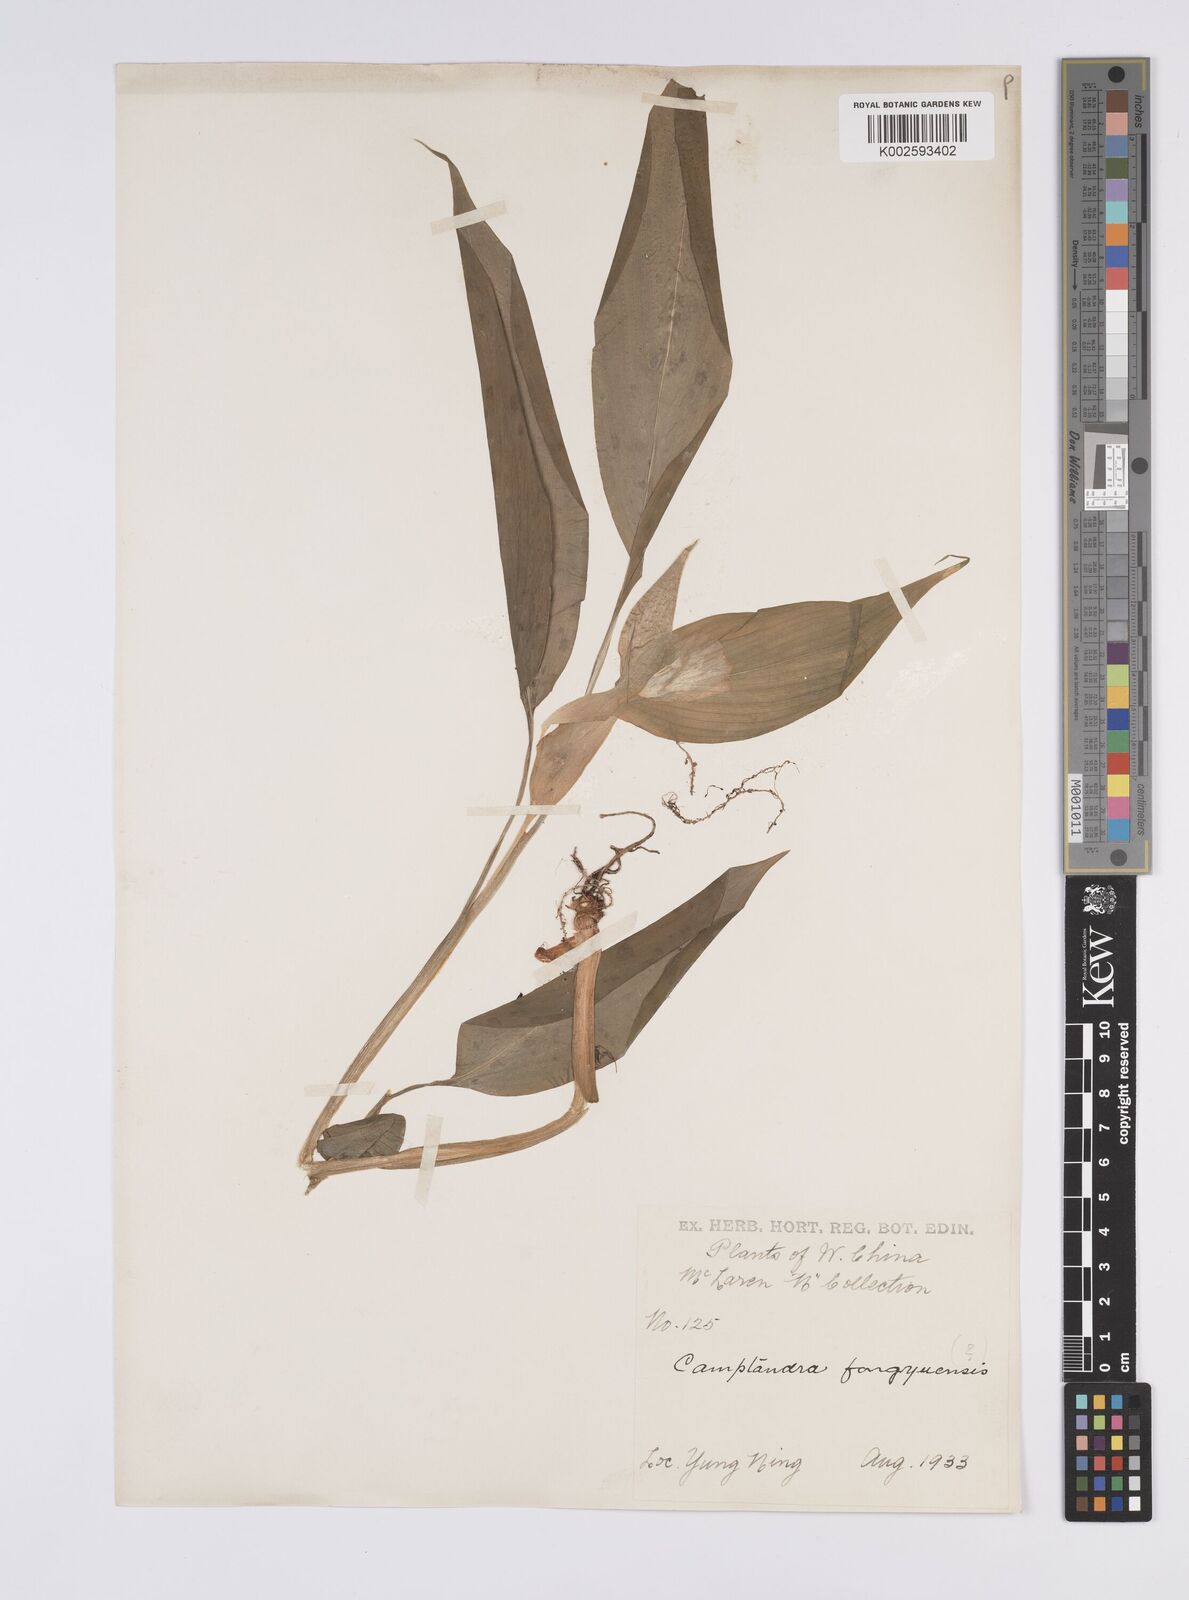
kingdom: Plantae
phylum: Tracheophyta
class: Liliopsida
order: Zingiberales
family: Zingiberaceae
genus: Pyrgophyllum
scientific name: Pyrgophyllum yunnanense
